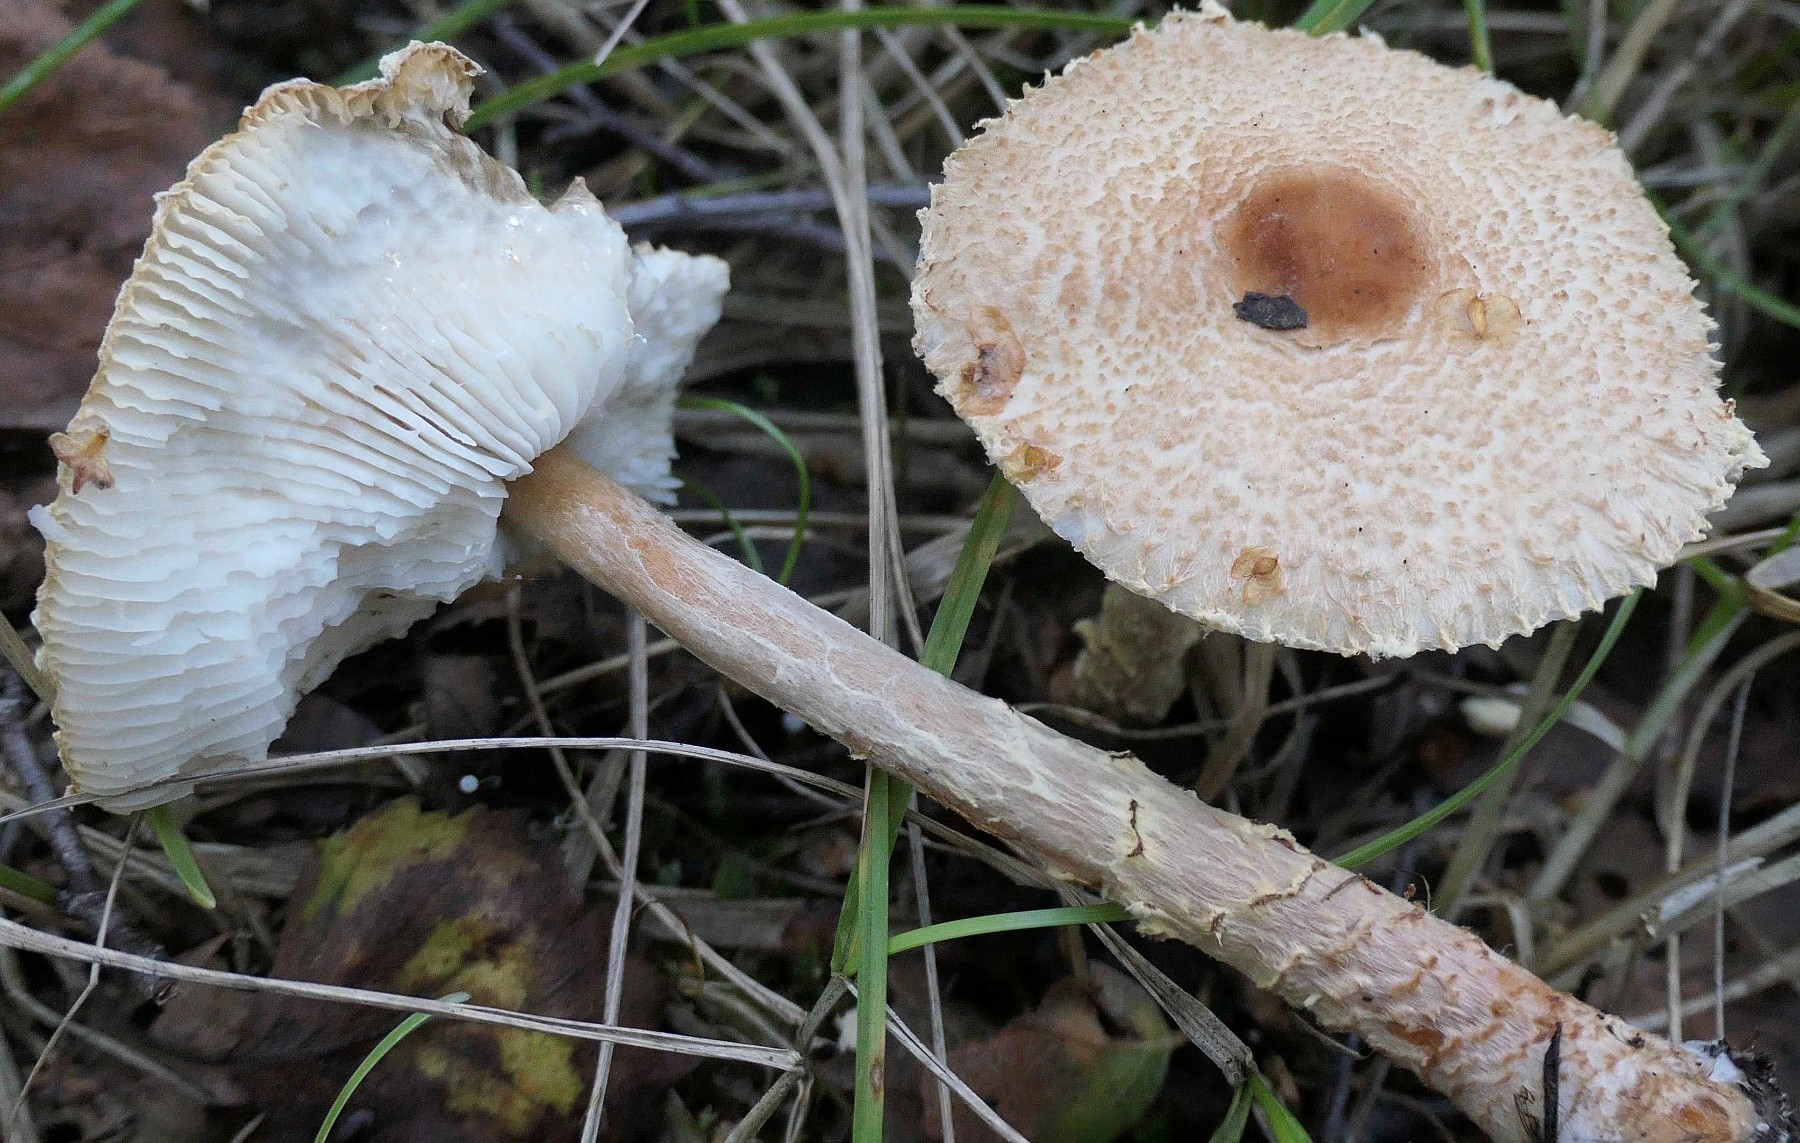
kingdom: Fungi
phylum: Basidiomycota
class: Agaricomycetes
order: Agaricales
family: Agaricaceae
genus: Lepiota
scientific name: Lepiota magnispora
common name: gulfnugget parasolhat
